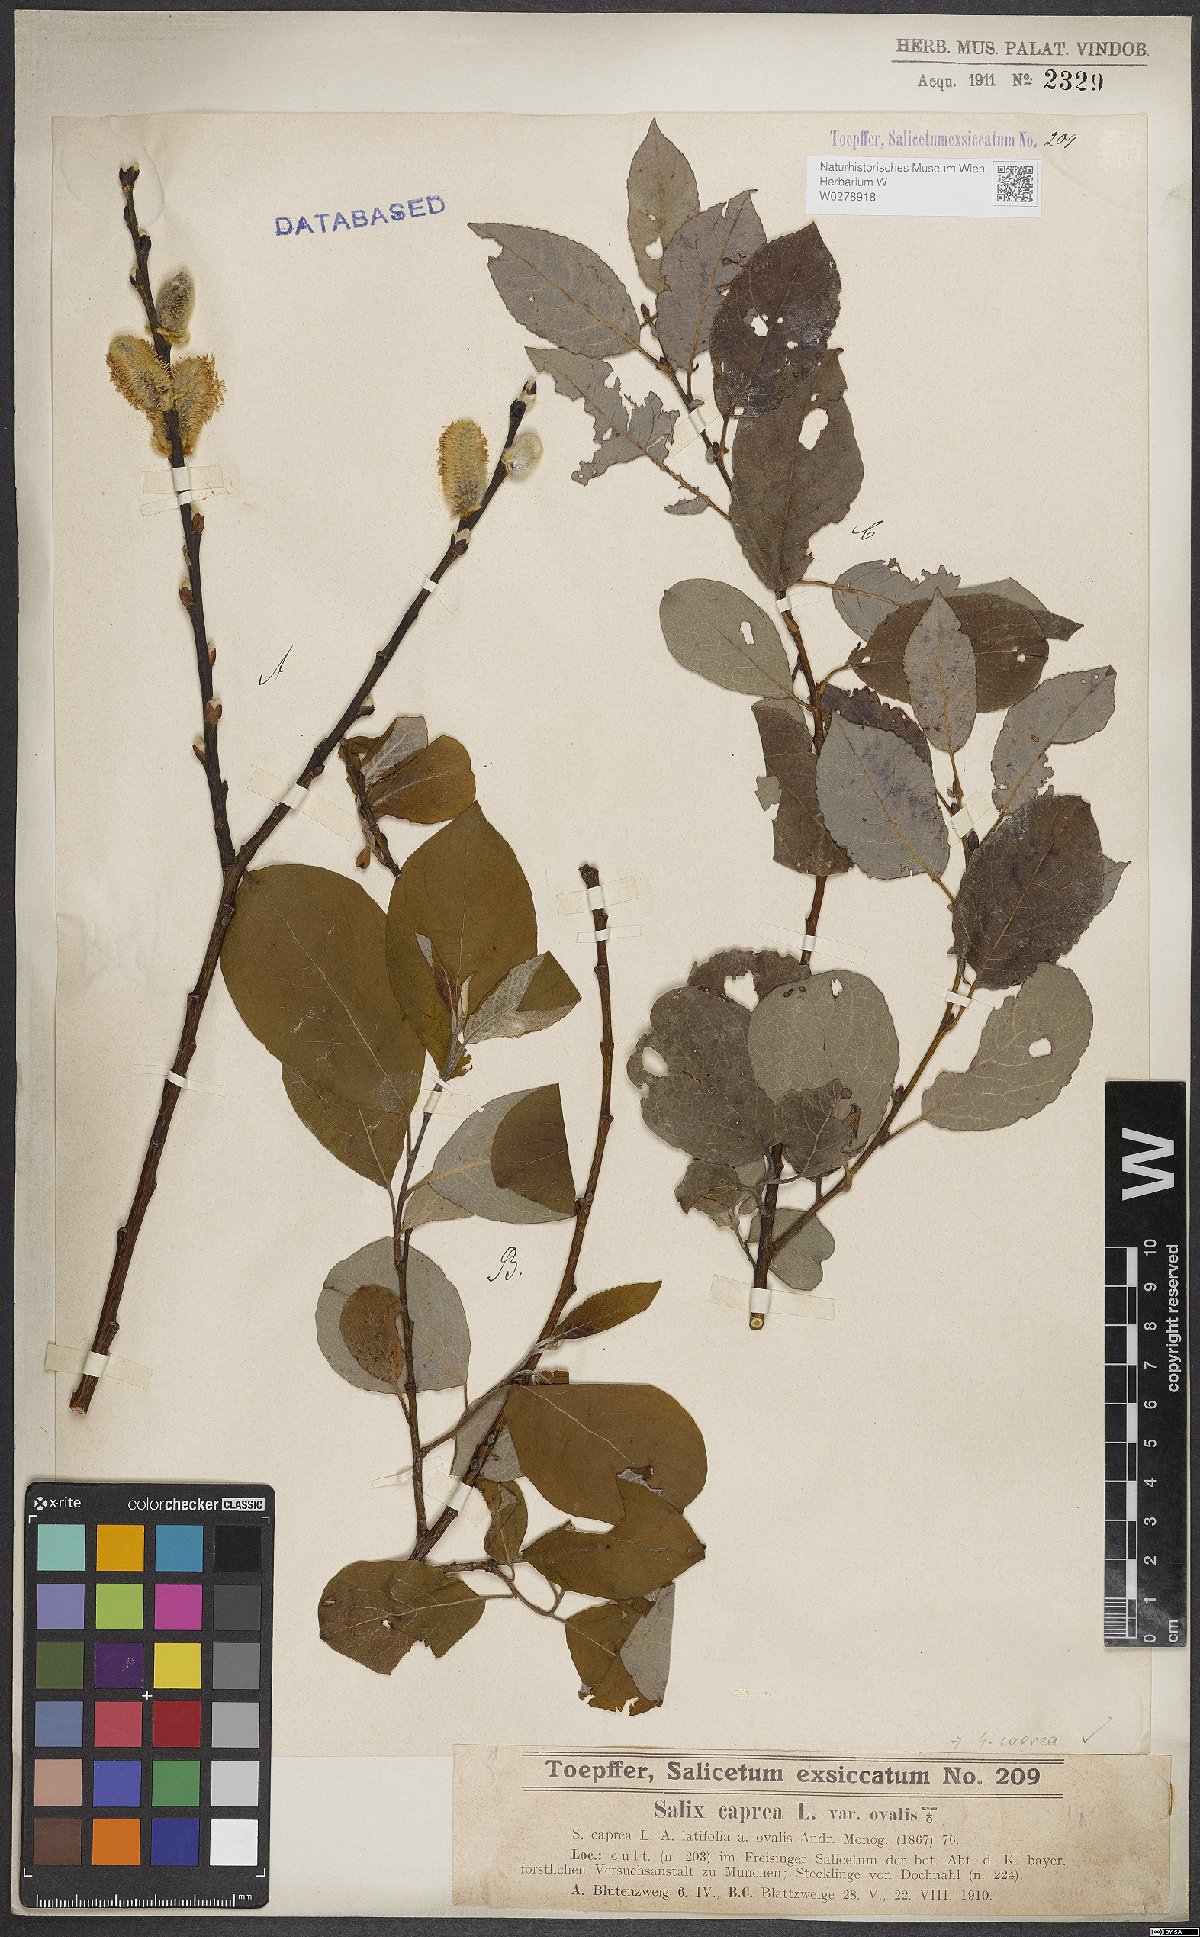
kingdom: Plantae
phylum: Tracheophyta
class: Magnoliopsida
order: Malpighiales
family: Salicaceae
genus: Salix
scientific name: Salix caprea
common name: Goat willow
